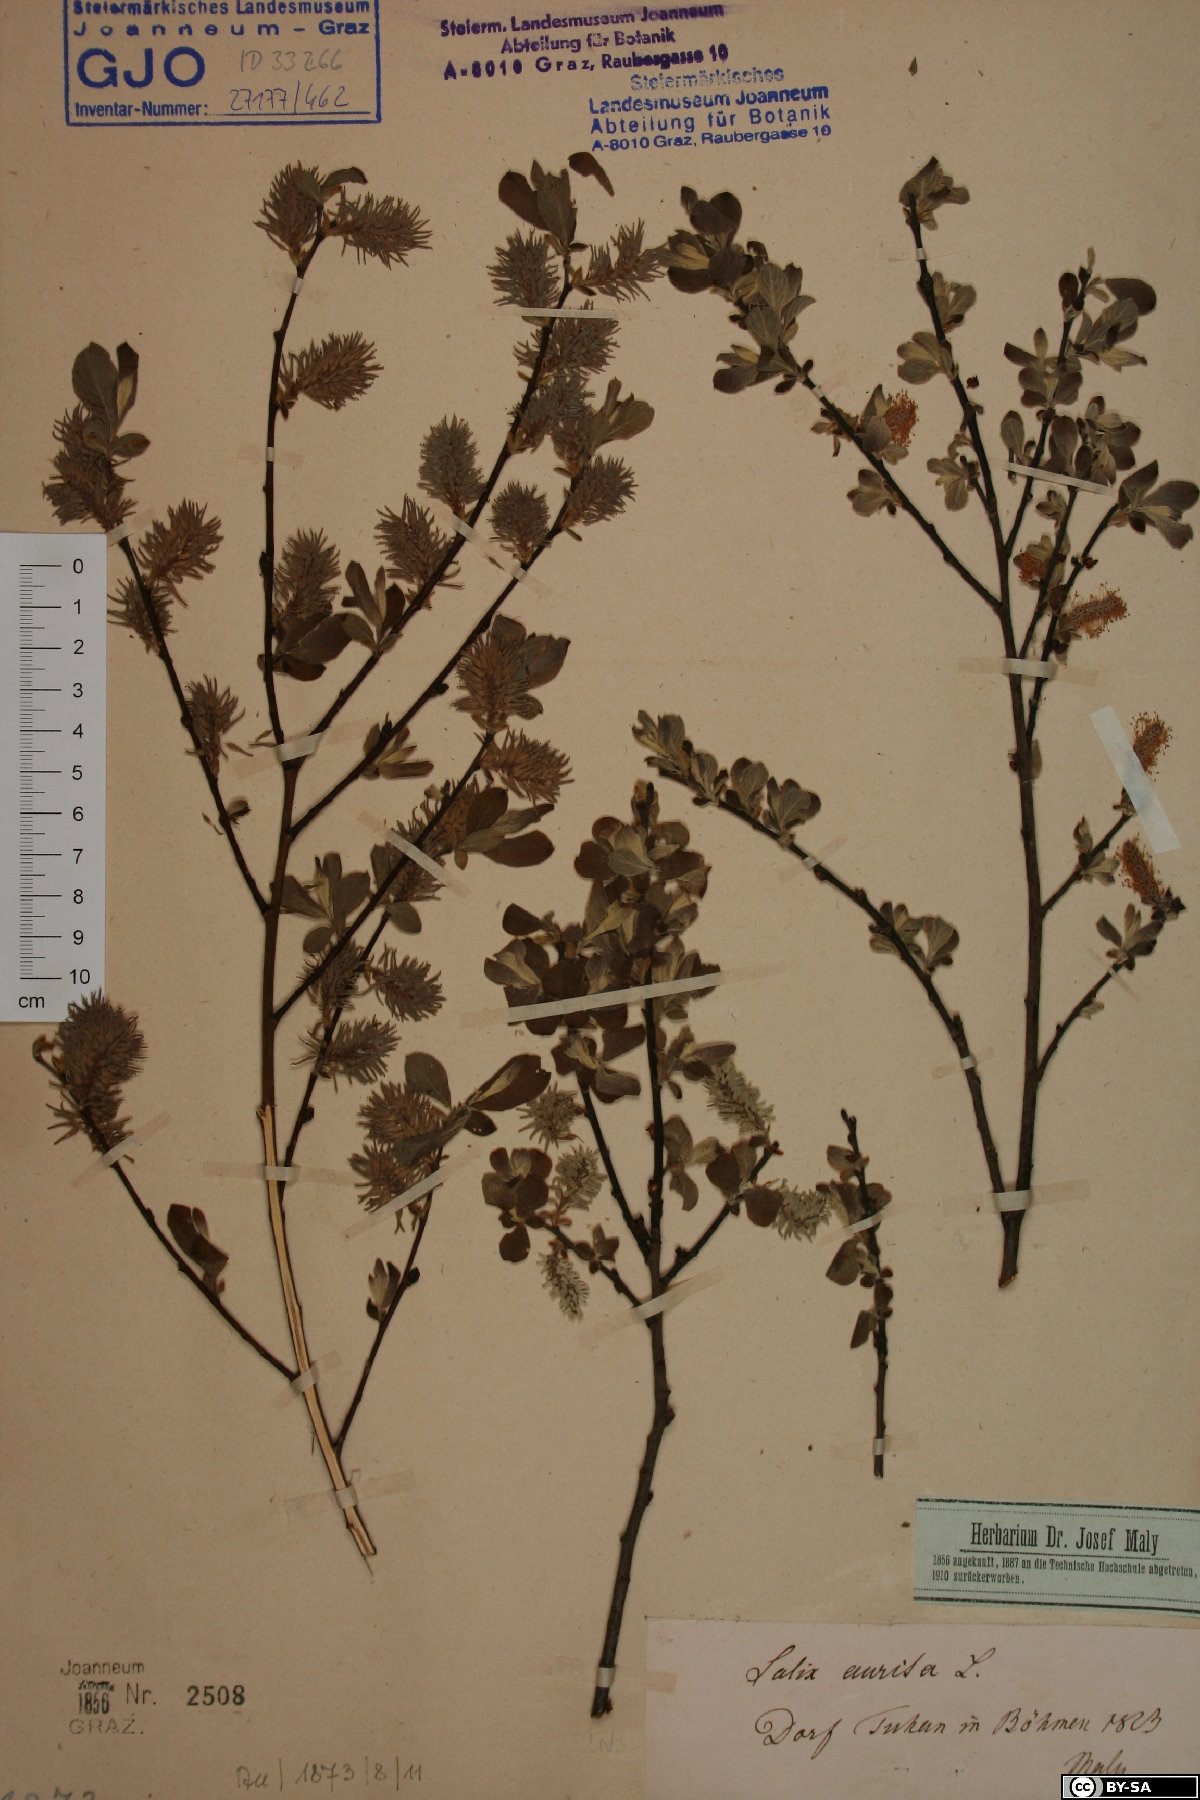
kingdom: Plantae
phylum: Tracheophyta
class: Magnoliopsida
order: Malpighiales
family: Salicaceae
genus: Salix
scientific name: Salix aurita
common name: Eared willow
